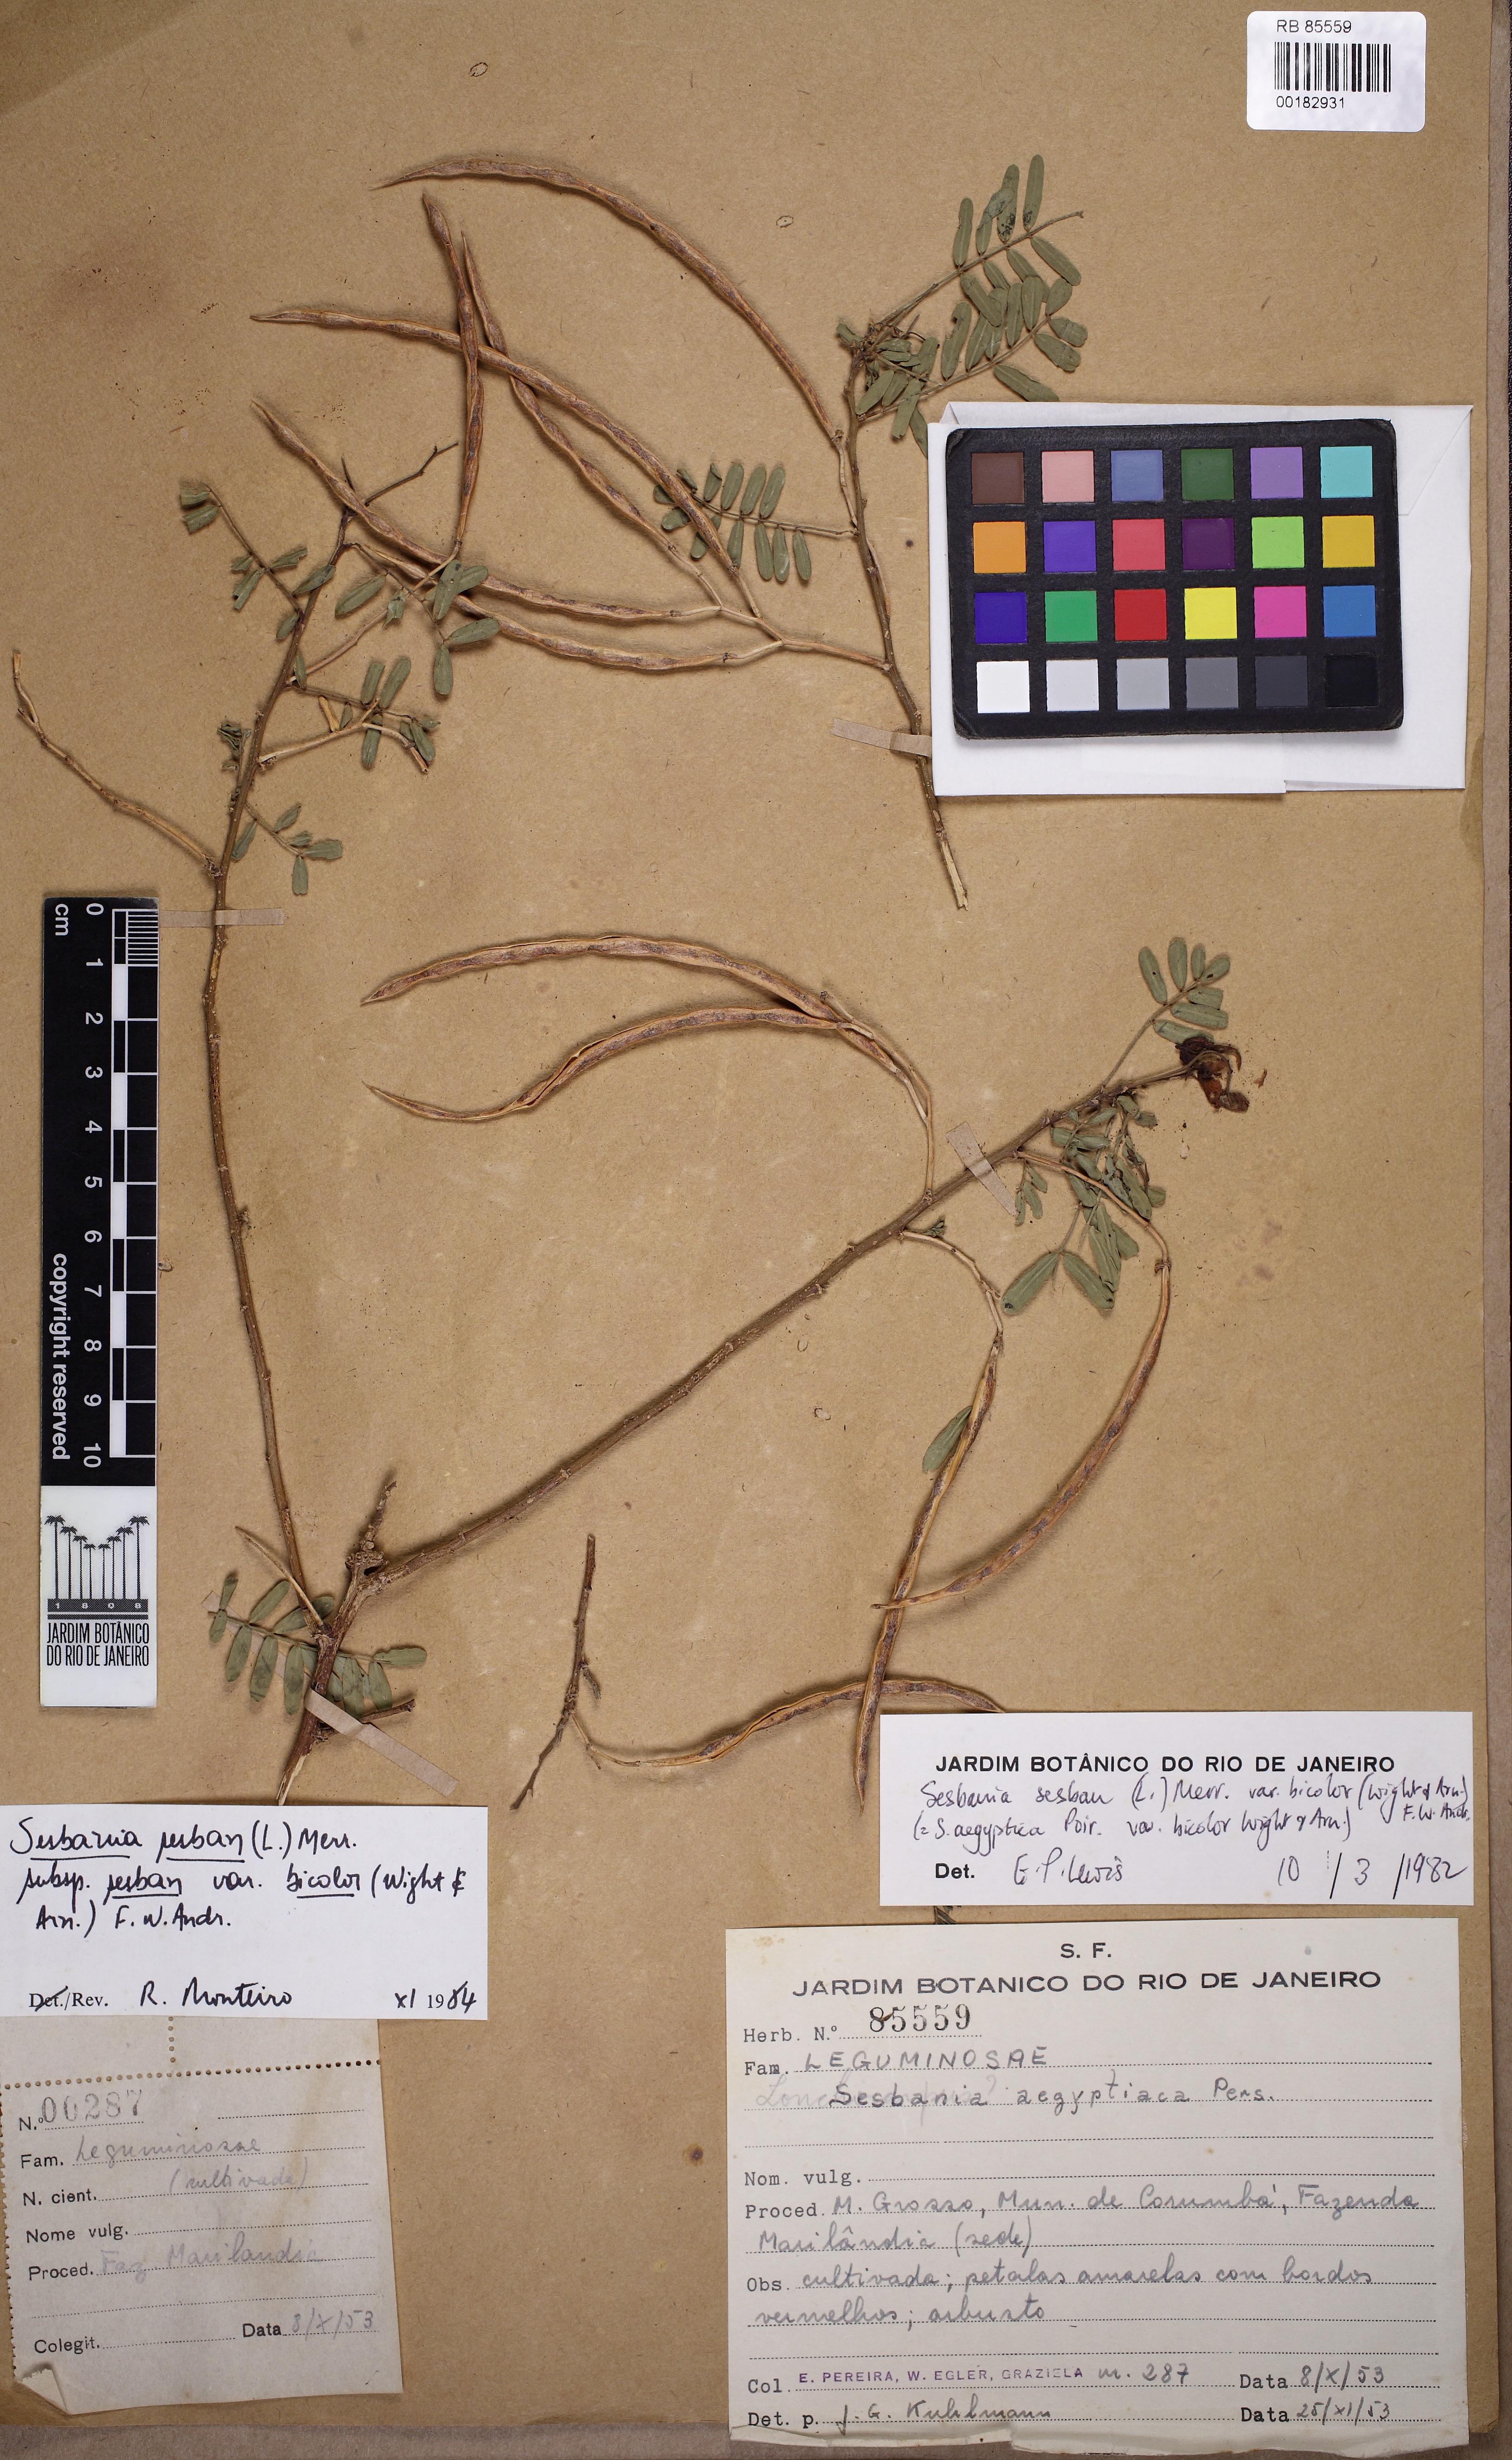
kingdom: Plantae
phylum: Tracheophyta
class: Magnoliopsida
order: Fabales
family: Fabaceae
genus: Sesbania
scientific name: Sesbania sesban
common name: Egyptian sesban
